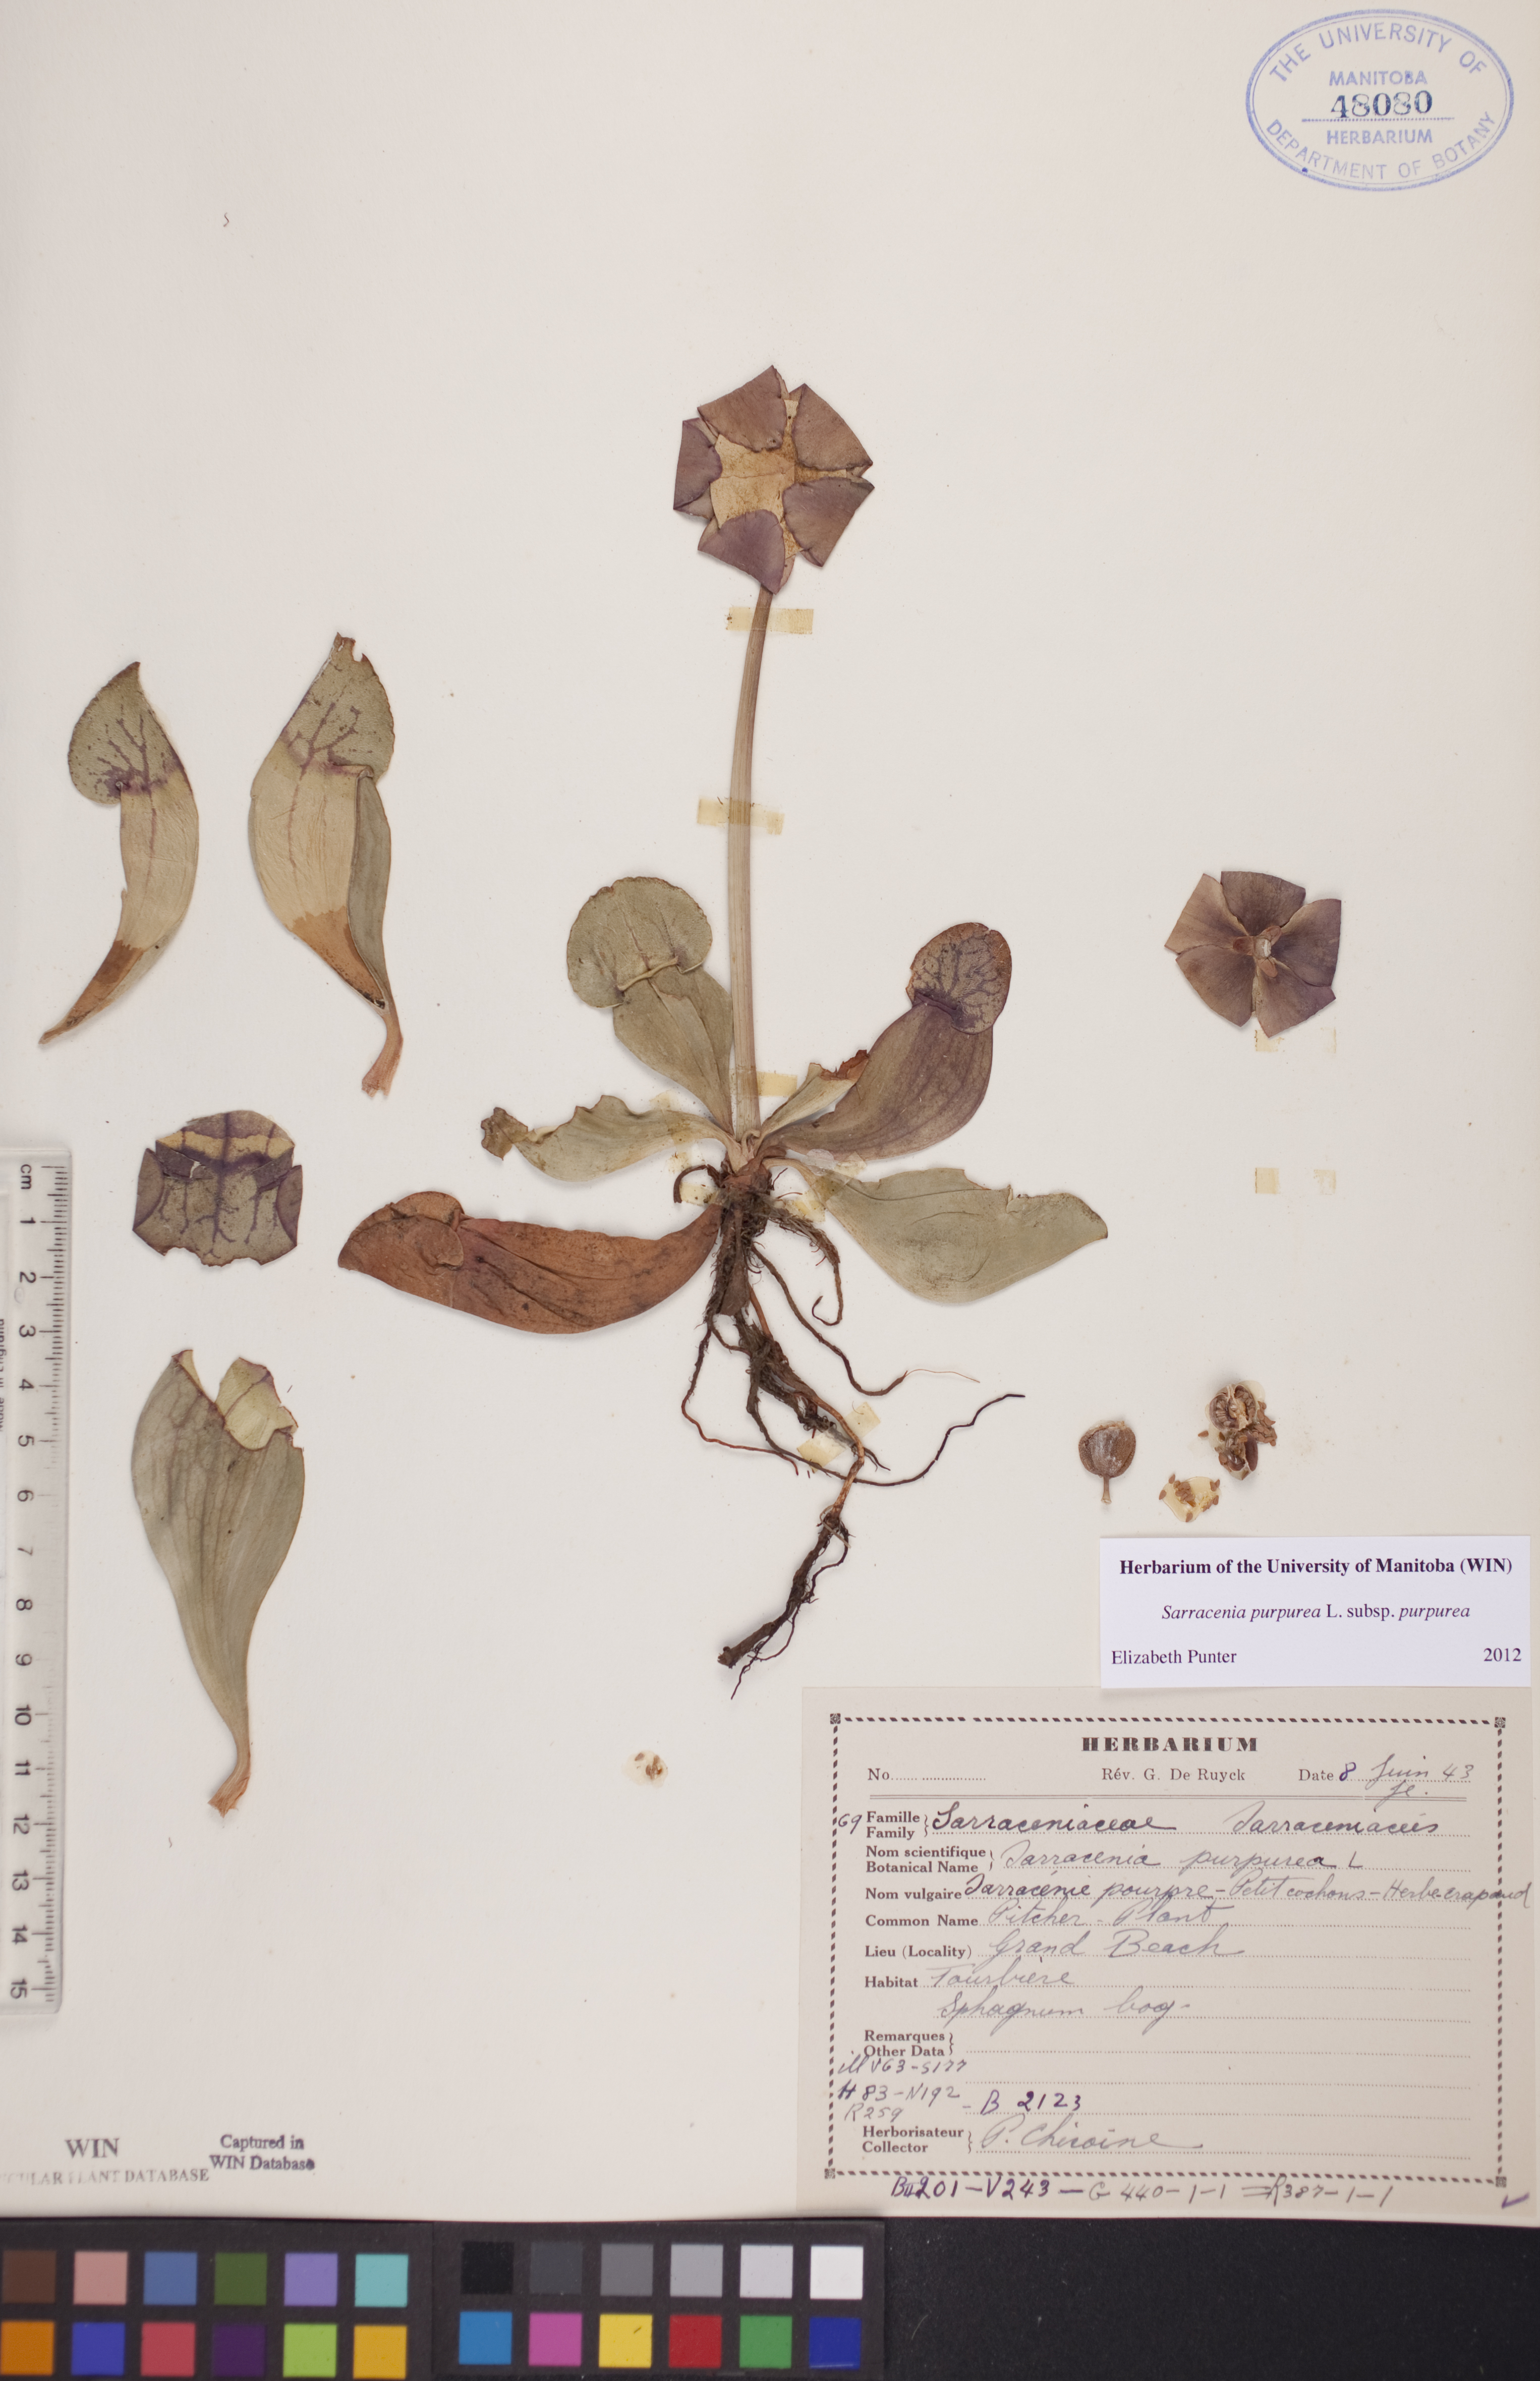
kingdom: Plantae
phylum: Tracheophyta
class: Magnoliopsida
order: Ericales
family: Sarraceniaceae
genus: Sarracenia
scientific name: Sarracenia purpurea
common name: Pitcherplant
